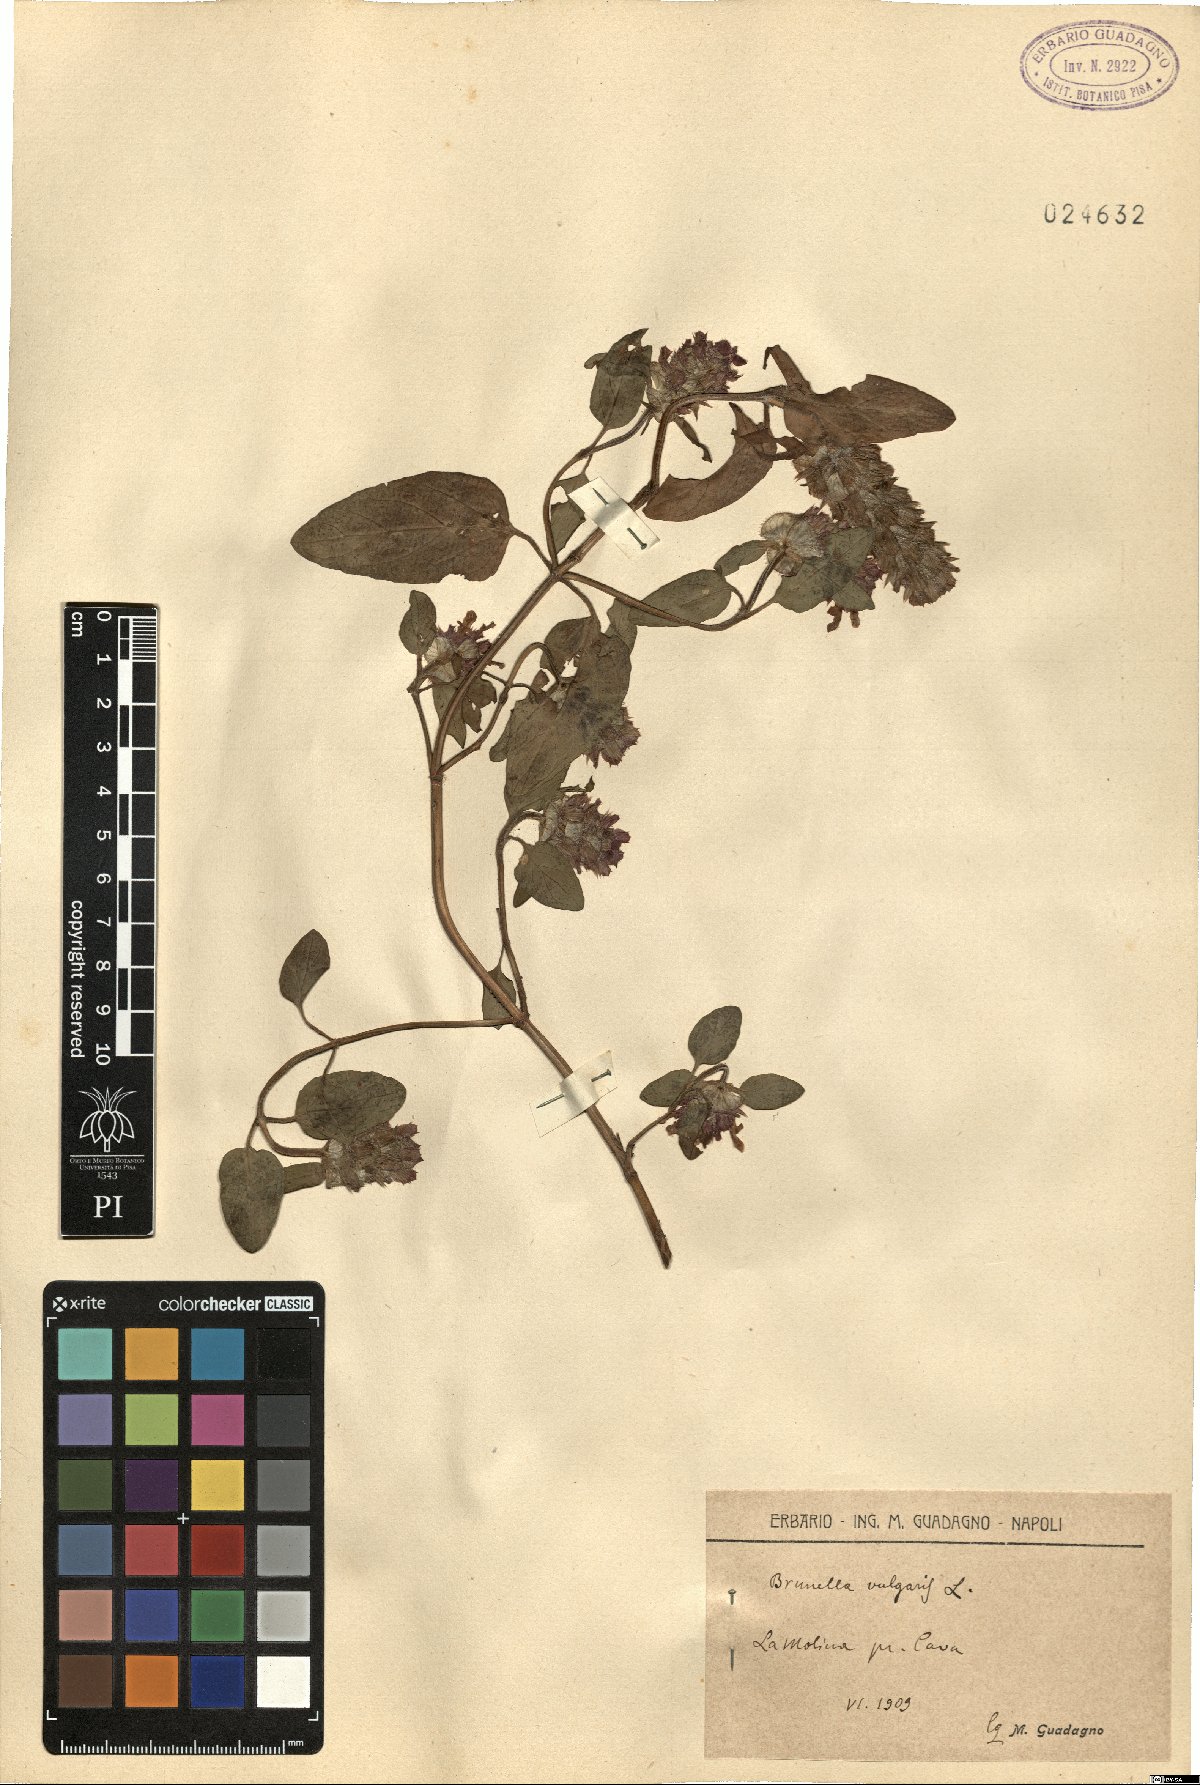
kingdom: Plantae
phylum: Tracheophyta
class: Magnoliopsida
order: Lamiales
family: Lamiaceae
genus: Prunella
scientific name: Prunella vulgaris
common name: Heal-all
